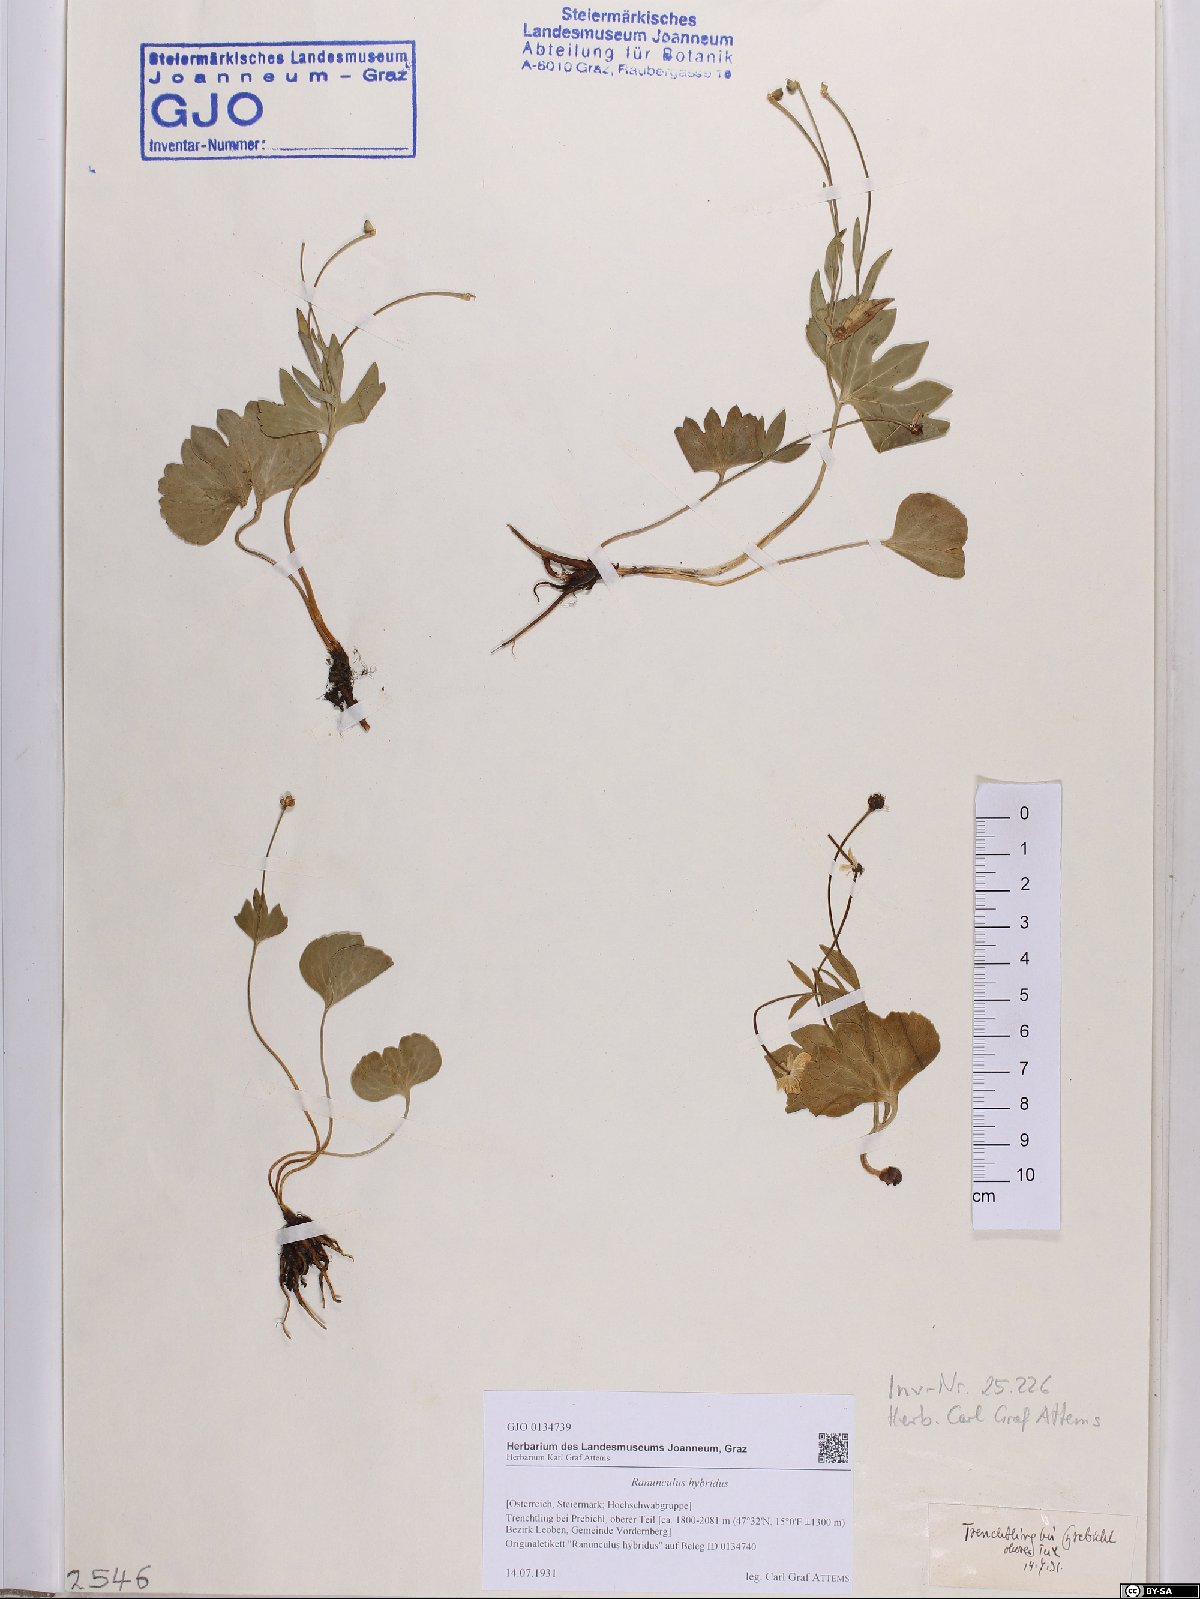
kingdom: Plantae
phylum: Tracheophyta
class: Magnoliopsida
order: Ranunculales
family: Ranunculaceae
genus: Ranunculus
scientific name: Ranunculus hybridus
